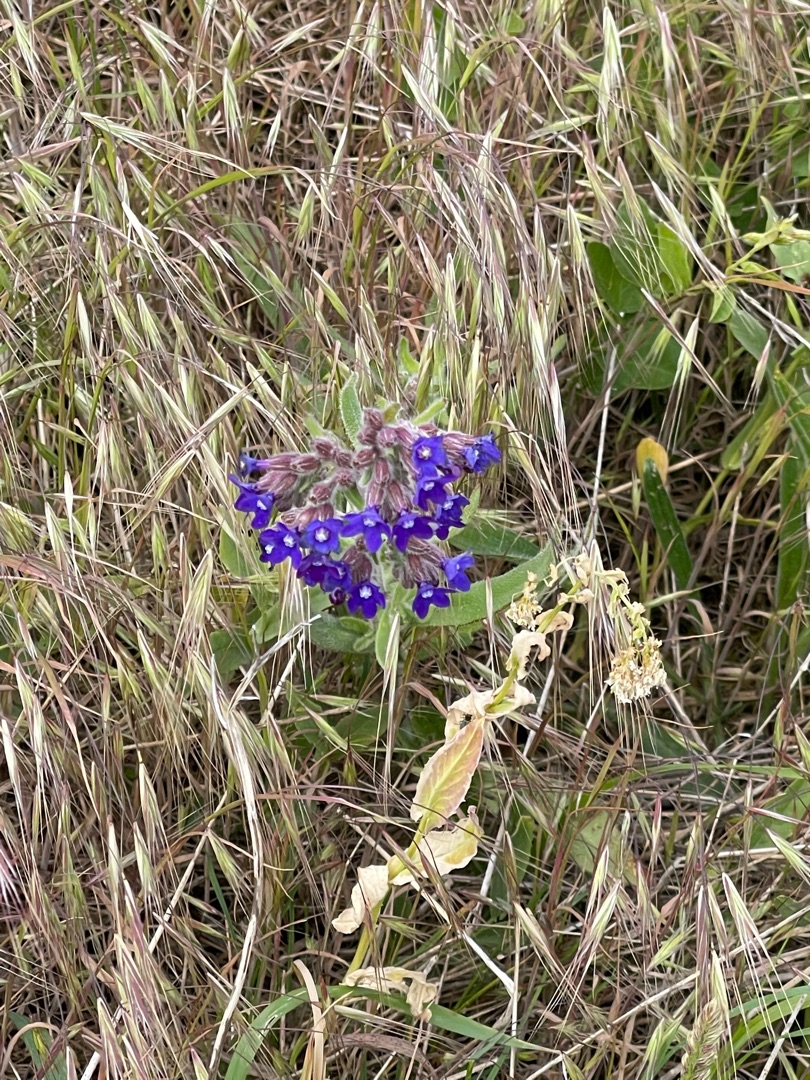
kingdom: Plantae
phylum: Tracheophyta
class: Magnoliopsida
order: Boraginales
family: Boraginaceae
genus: Anchusa
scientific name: Anchusa officinalis
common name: Læge-oksetunge
